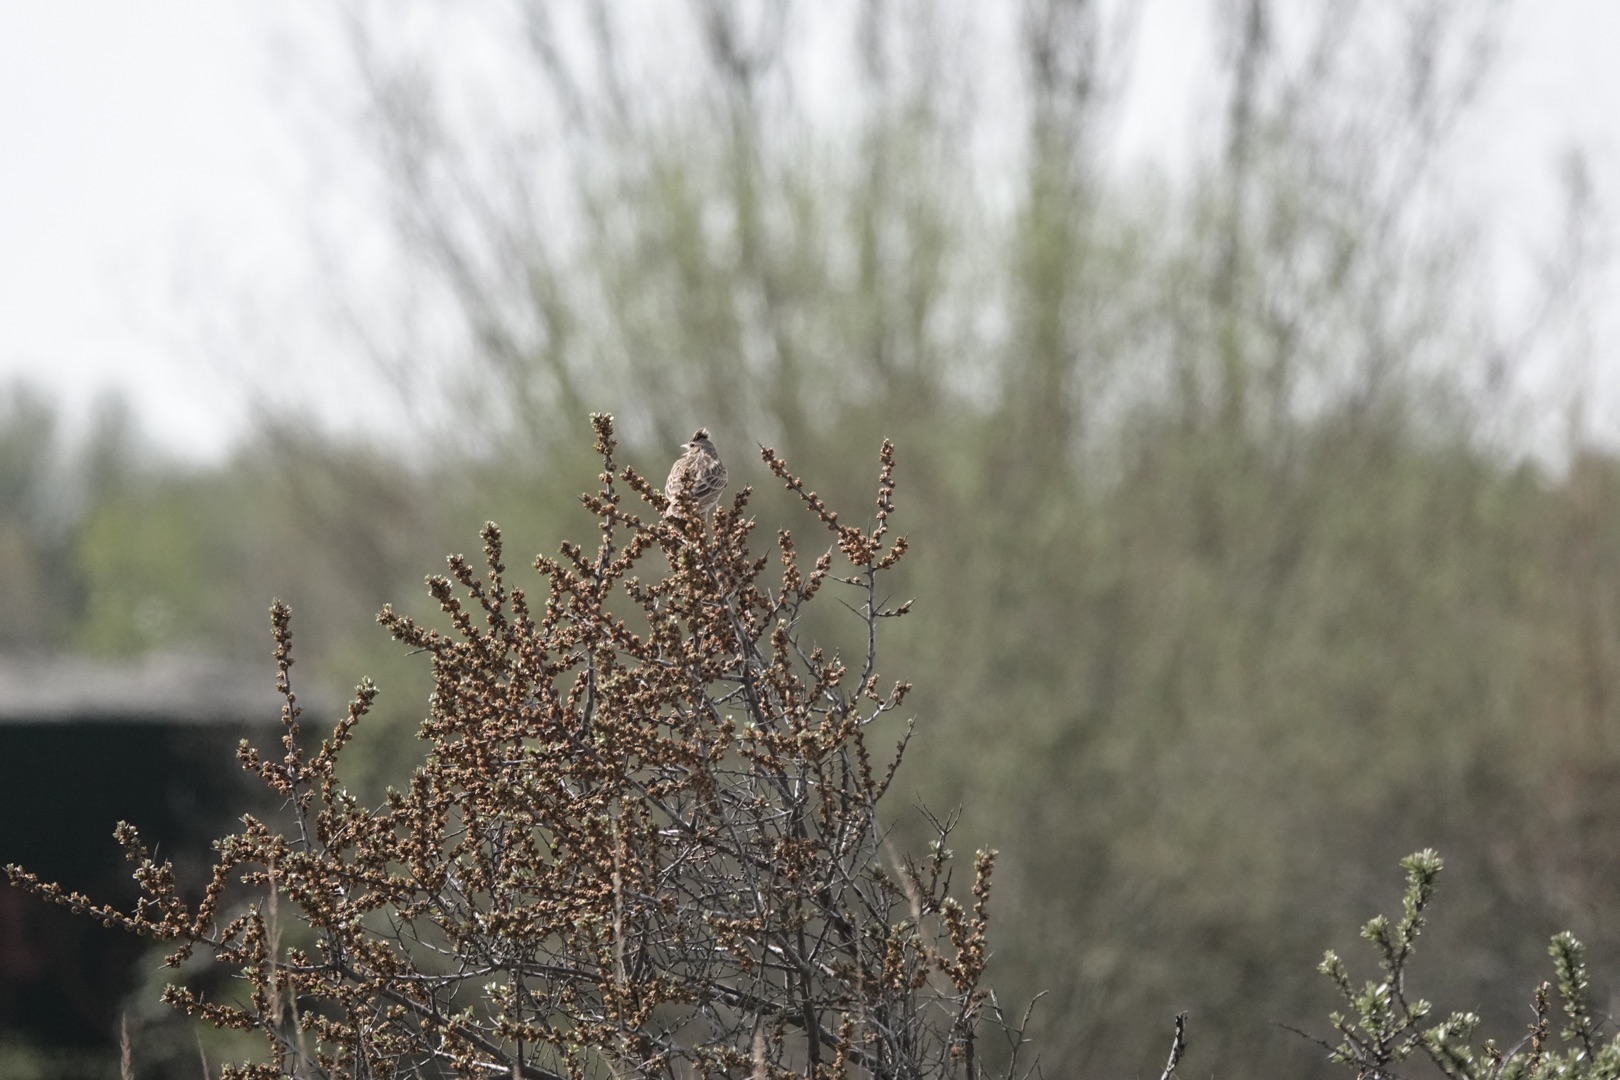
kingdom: Animalia
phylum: Chordata
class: Aves
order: Passeriformes
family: Alaudidae
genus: Alauda
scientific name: Alauda arvensis
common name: Sanglærke
